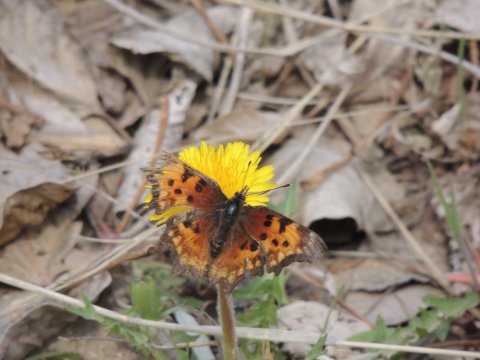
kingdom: Animalia
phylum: Arthropoda
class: Insecta
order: Lepidoptera
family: Nymphalidae
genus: Polygonia
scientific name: Polygonia gracilis
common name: Hoary Comma
